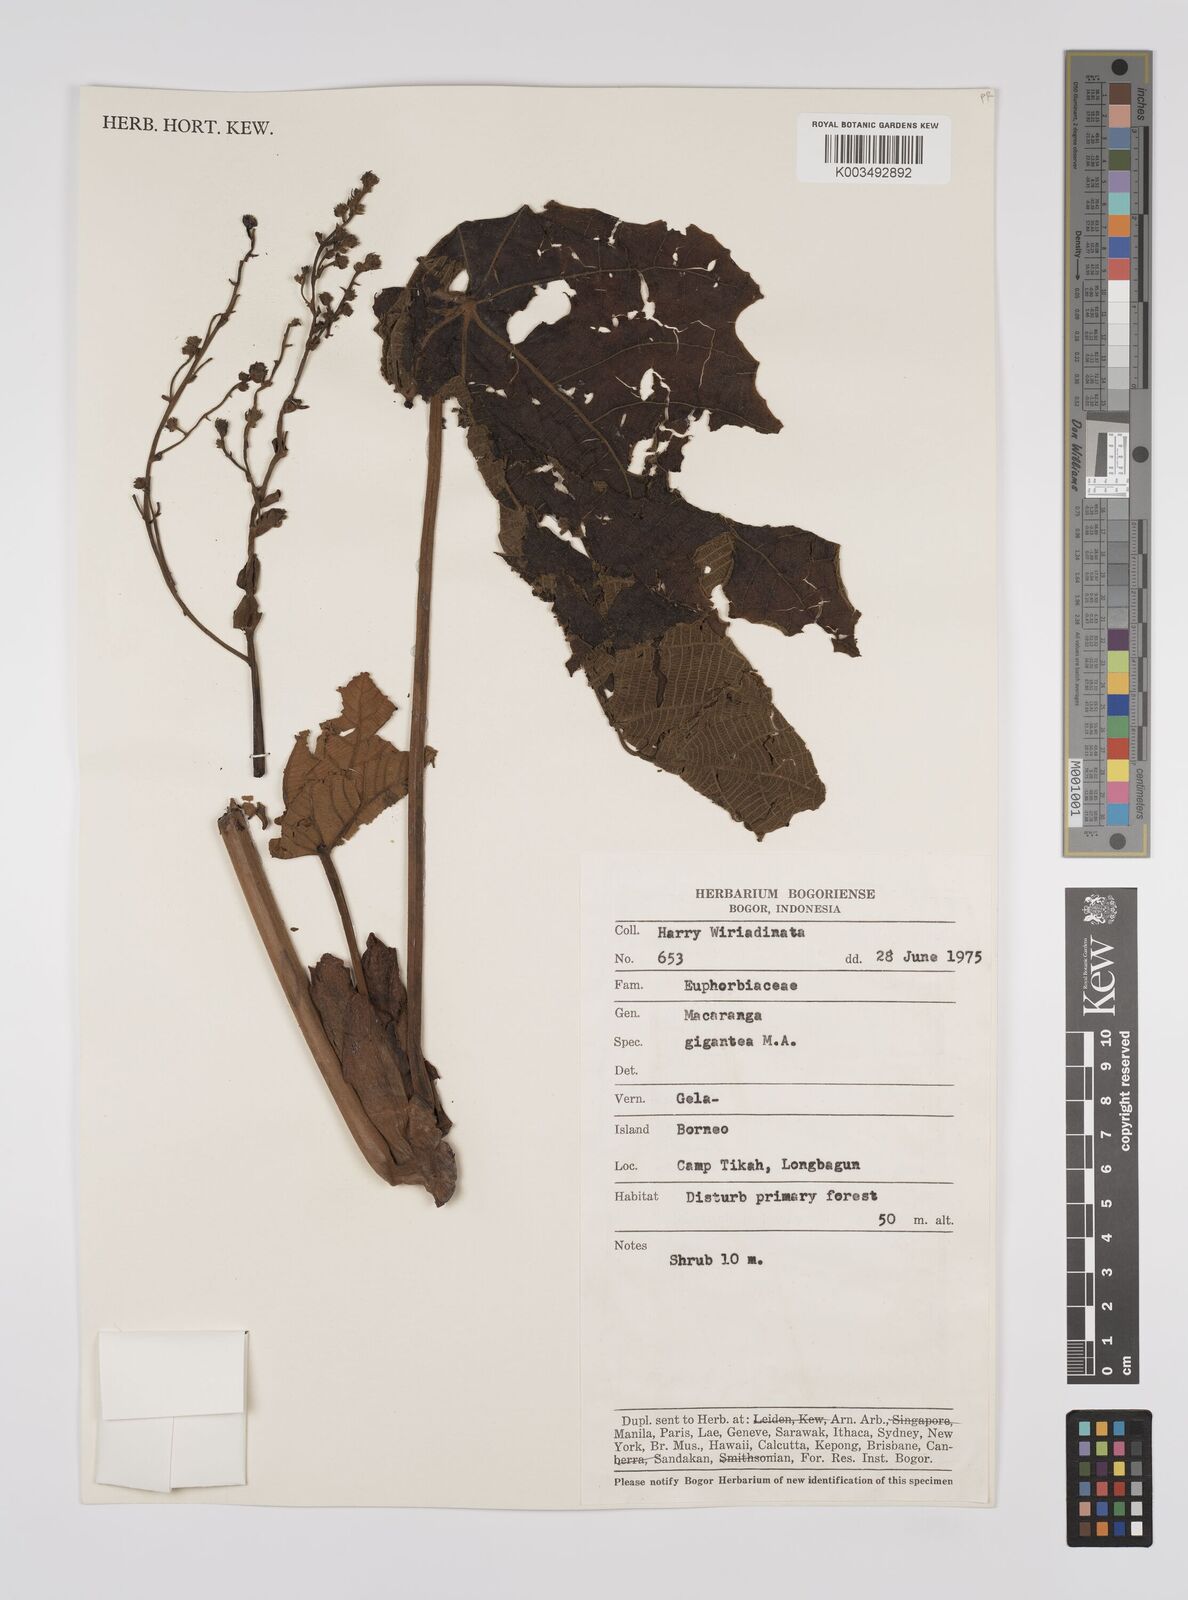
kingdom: Plantae
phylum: Tracheophyta
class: Magnoliopsida
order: Malpighiales
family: Euphorbiaceae
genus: Macaranga
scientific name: Macaranga gigantea
